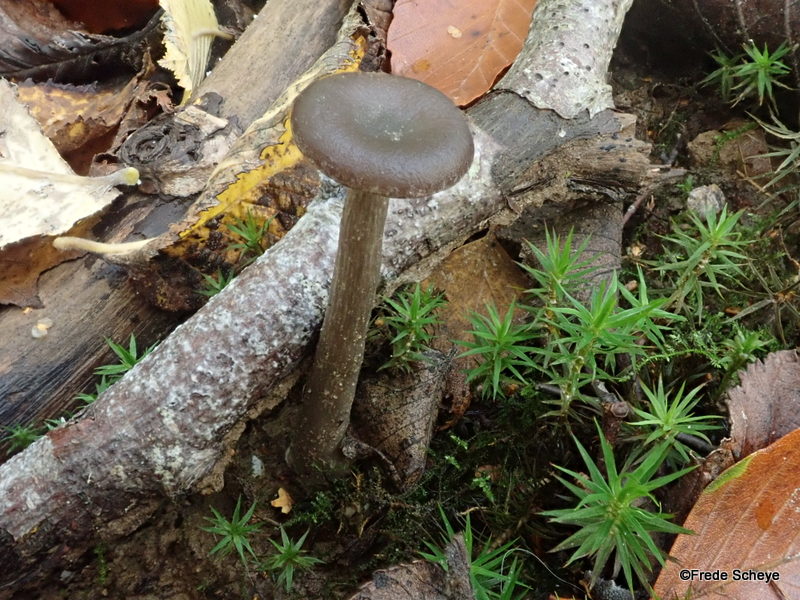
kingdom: Fungi
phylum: Basidiomycota
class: Agaricomycetes
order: Agaricales
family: Pseudoclitocybaceae
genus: Pseudoclitocybe
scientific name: Pseudoclitocybe cyathiformis
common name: almindelig bægertragthat
